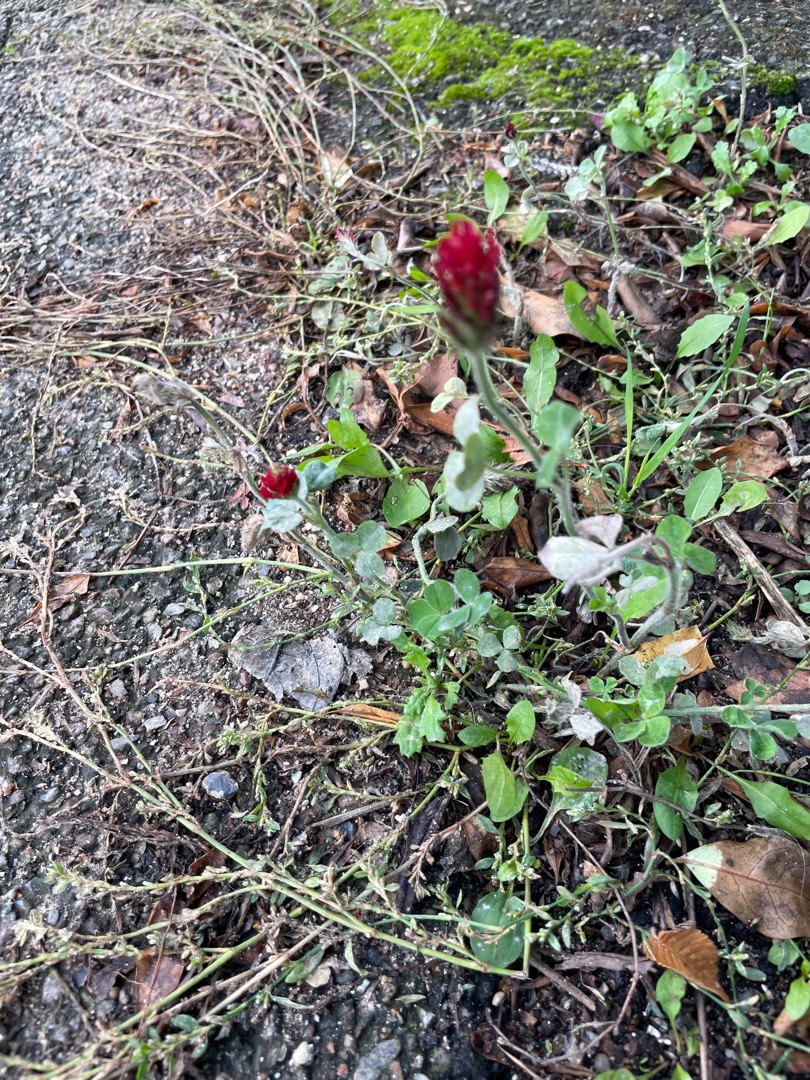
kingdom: Plantae
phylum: Tracheophyta
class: Magnoliopsida
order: Fabales
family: Fabaceae
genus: Trifolium
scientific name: Trifolium incarnatum
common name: Blod-kløver
